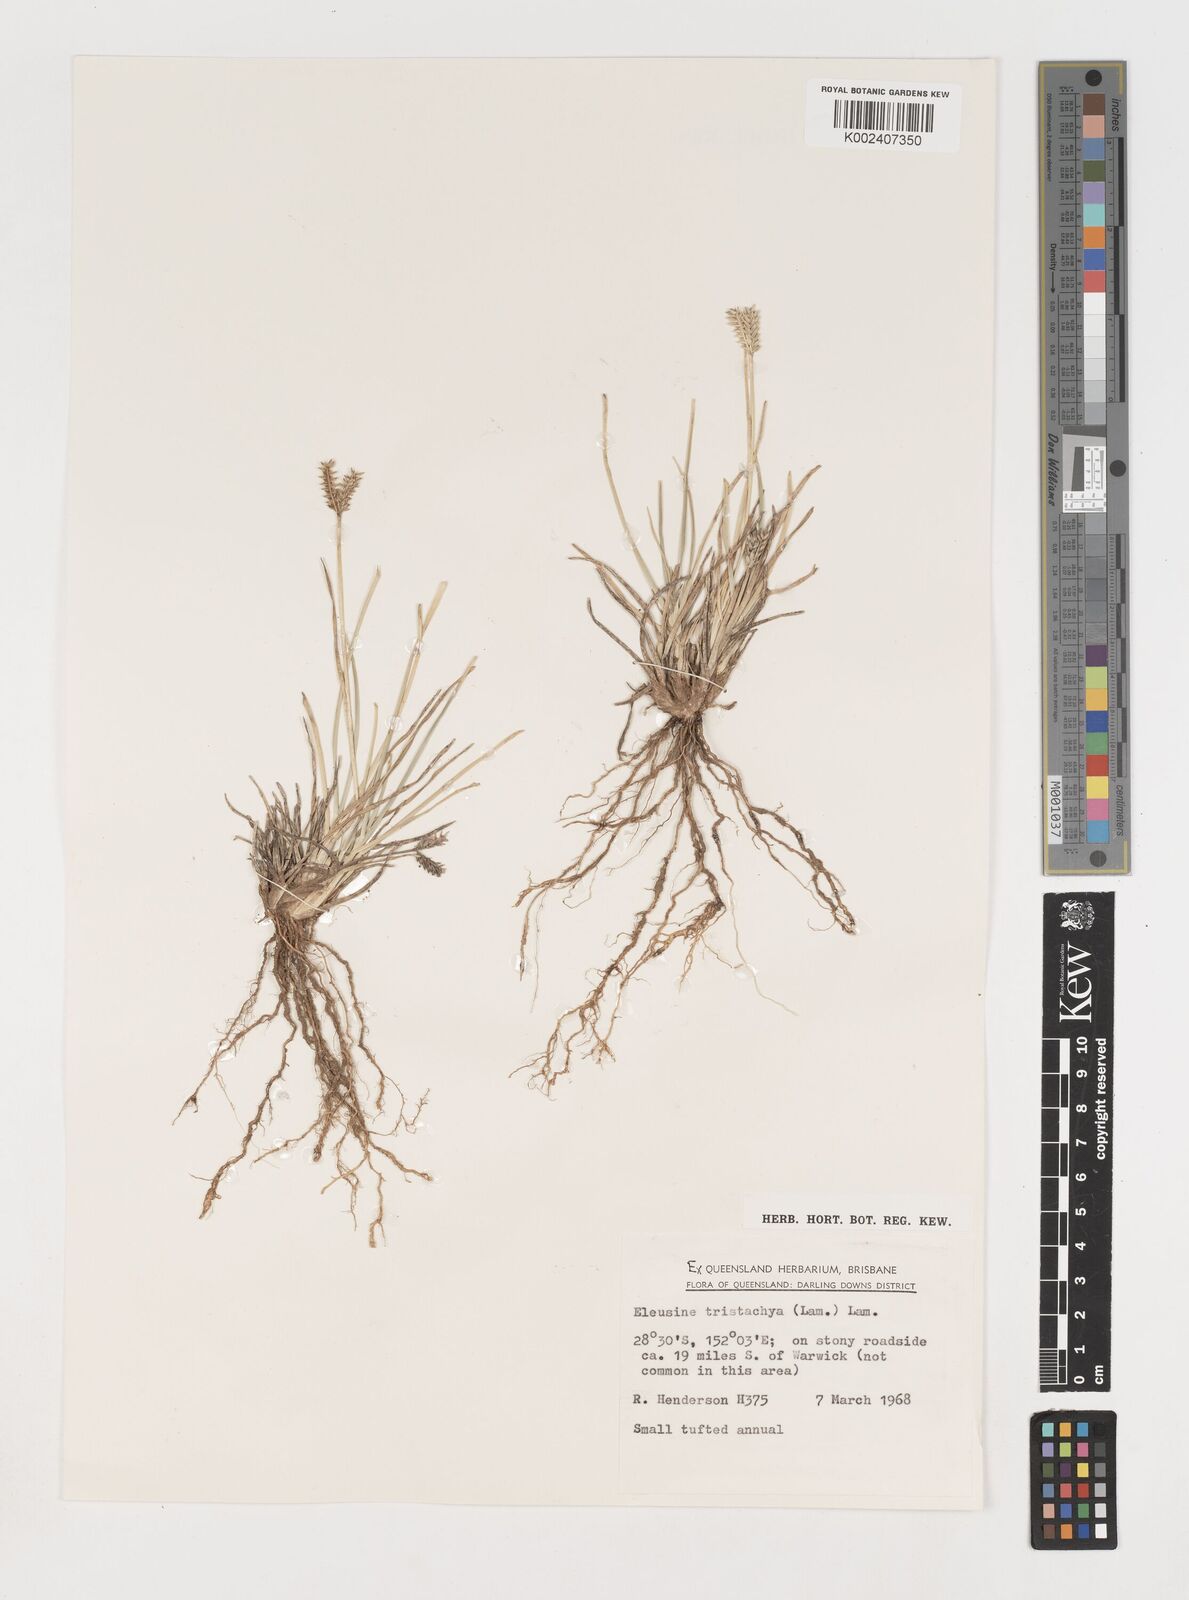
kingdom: Plantae
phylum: Tracheophyta
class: Liliopsida
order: Poales
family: Poaceae
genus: Eleusine
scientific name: Eleusine tristachya
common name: American yard-grass
